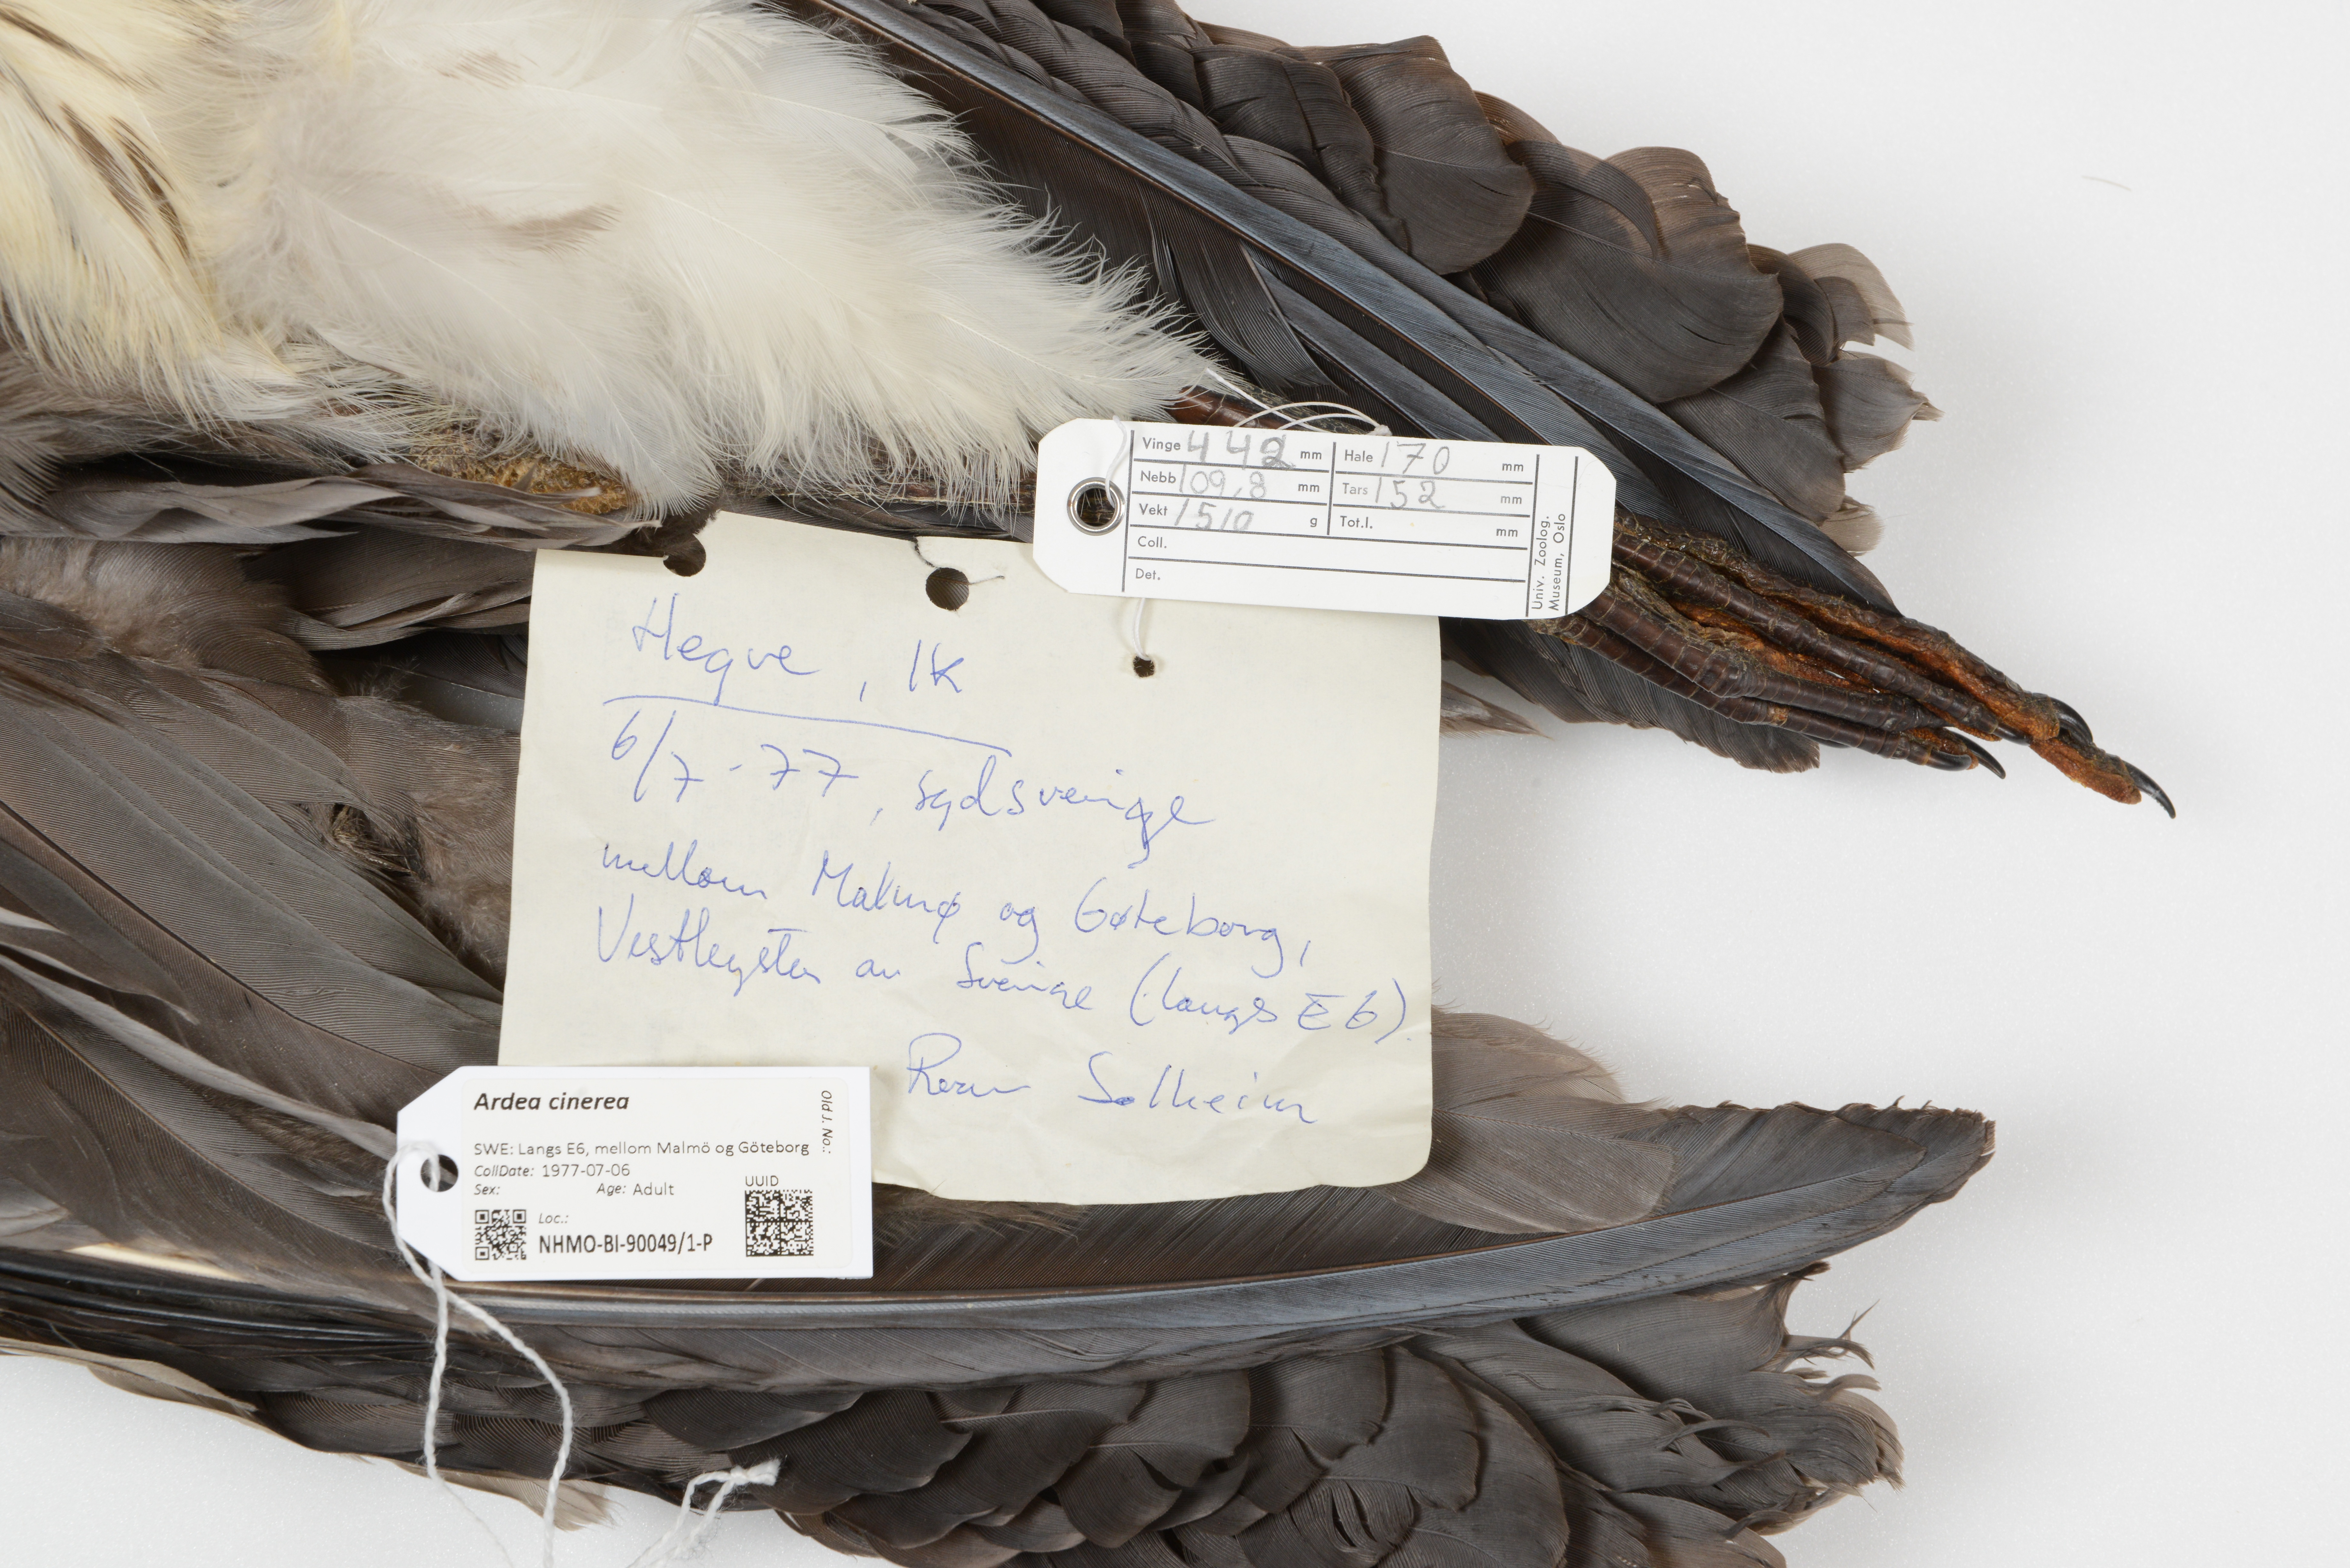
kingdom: Animalia
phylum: Chordata
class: Aves
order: Pelecaniformes
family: Ardeidae
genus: Ardea
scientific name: Ardea cinerea
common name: Grey heron
